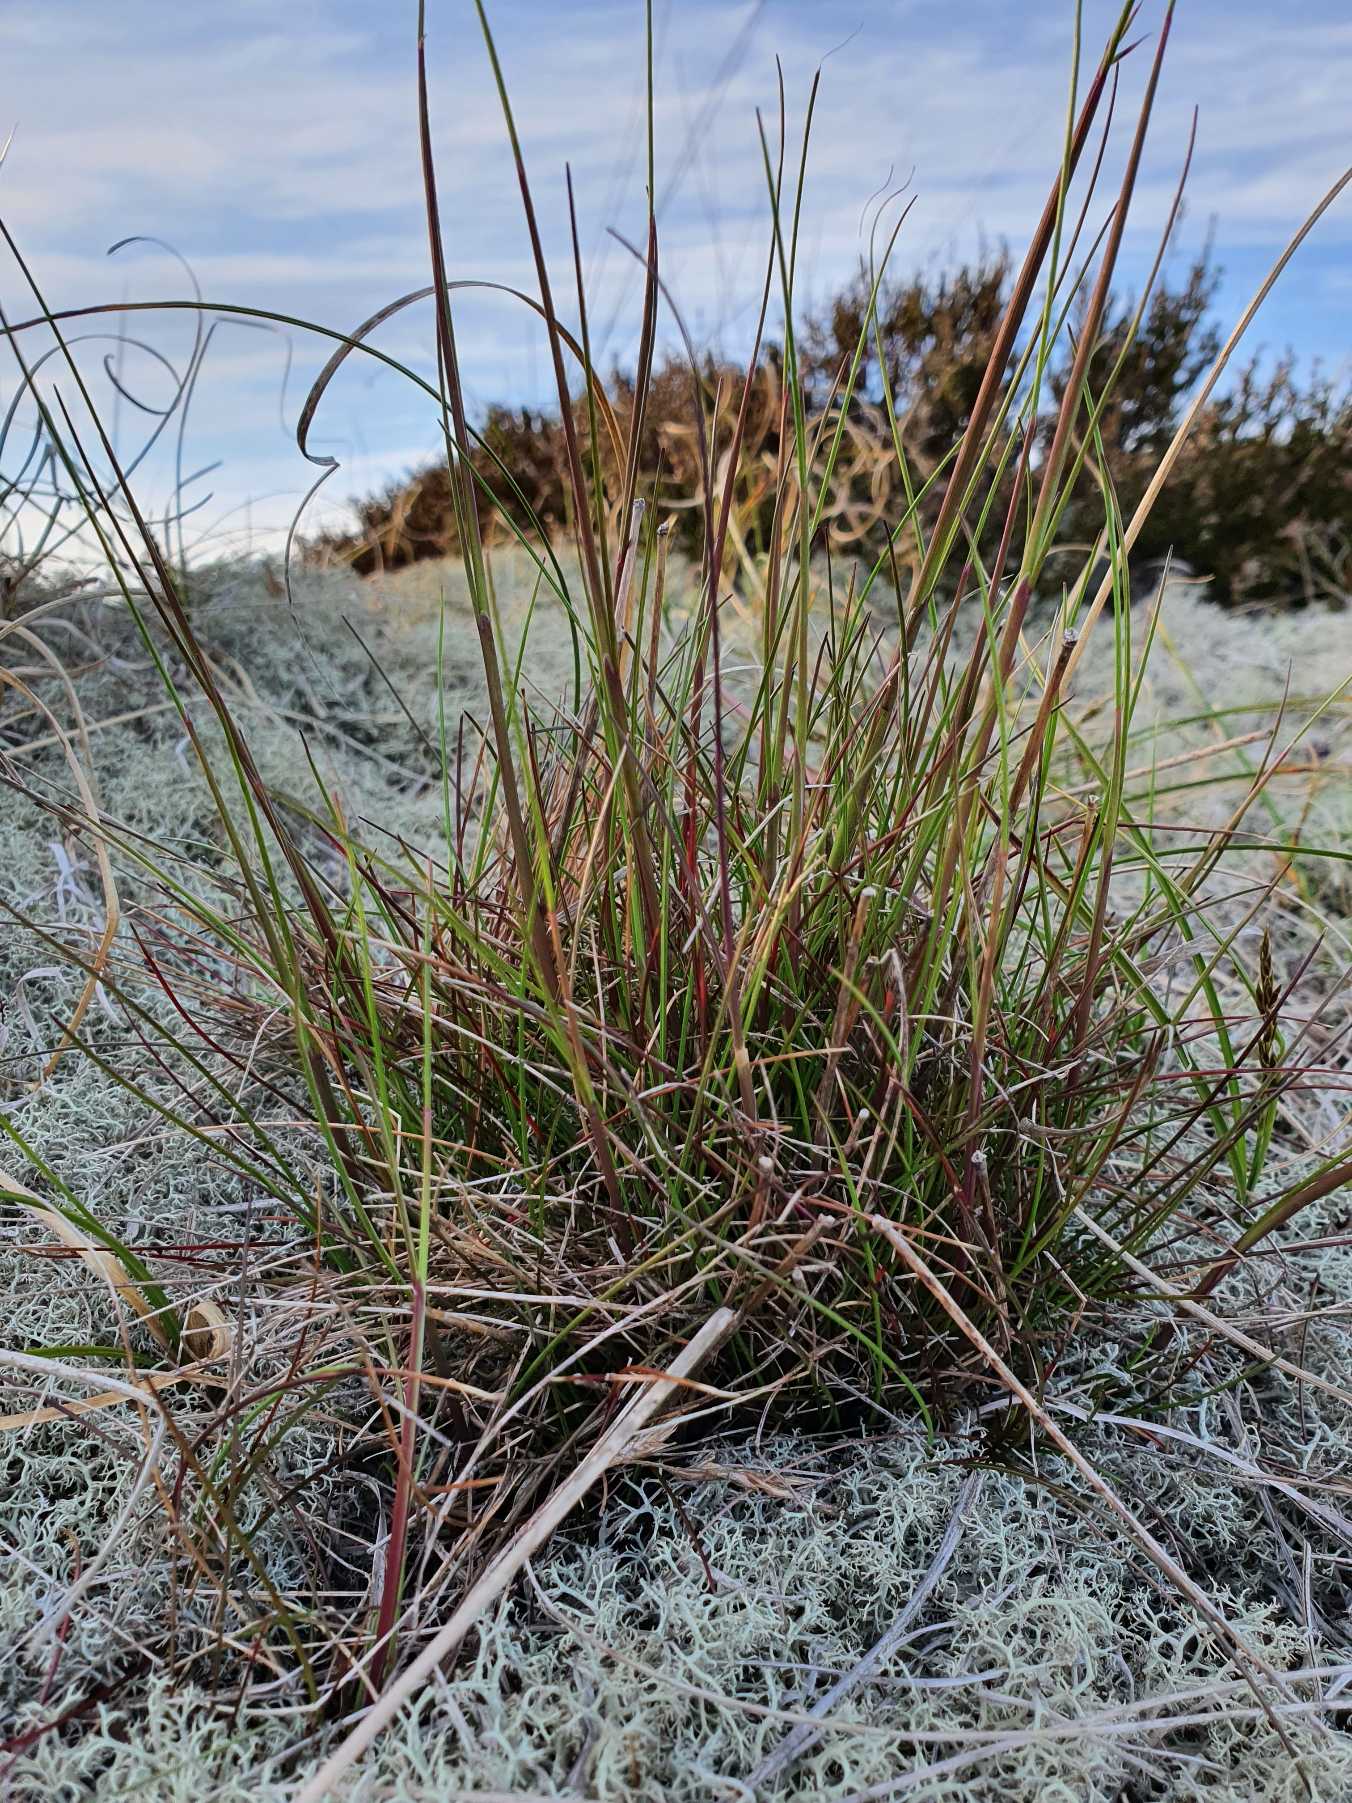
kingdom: Plantae
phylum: Tracheophyta
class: Liliopsida
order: Poales
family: Poaceae
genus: Avenella
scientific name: Avenella flexuosa
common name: Bølget bunke
